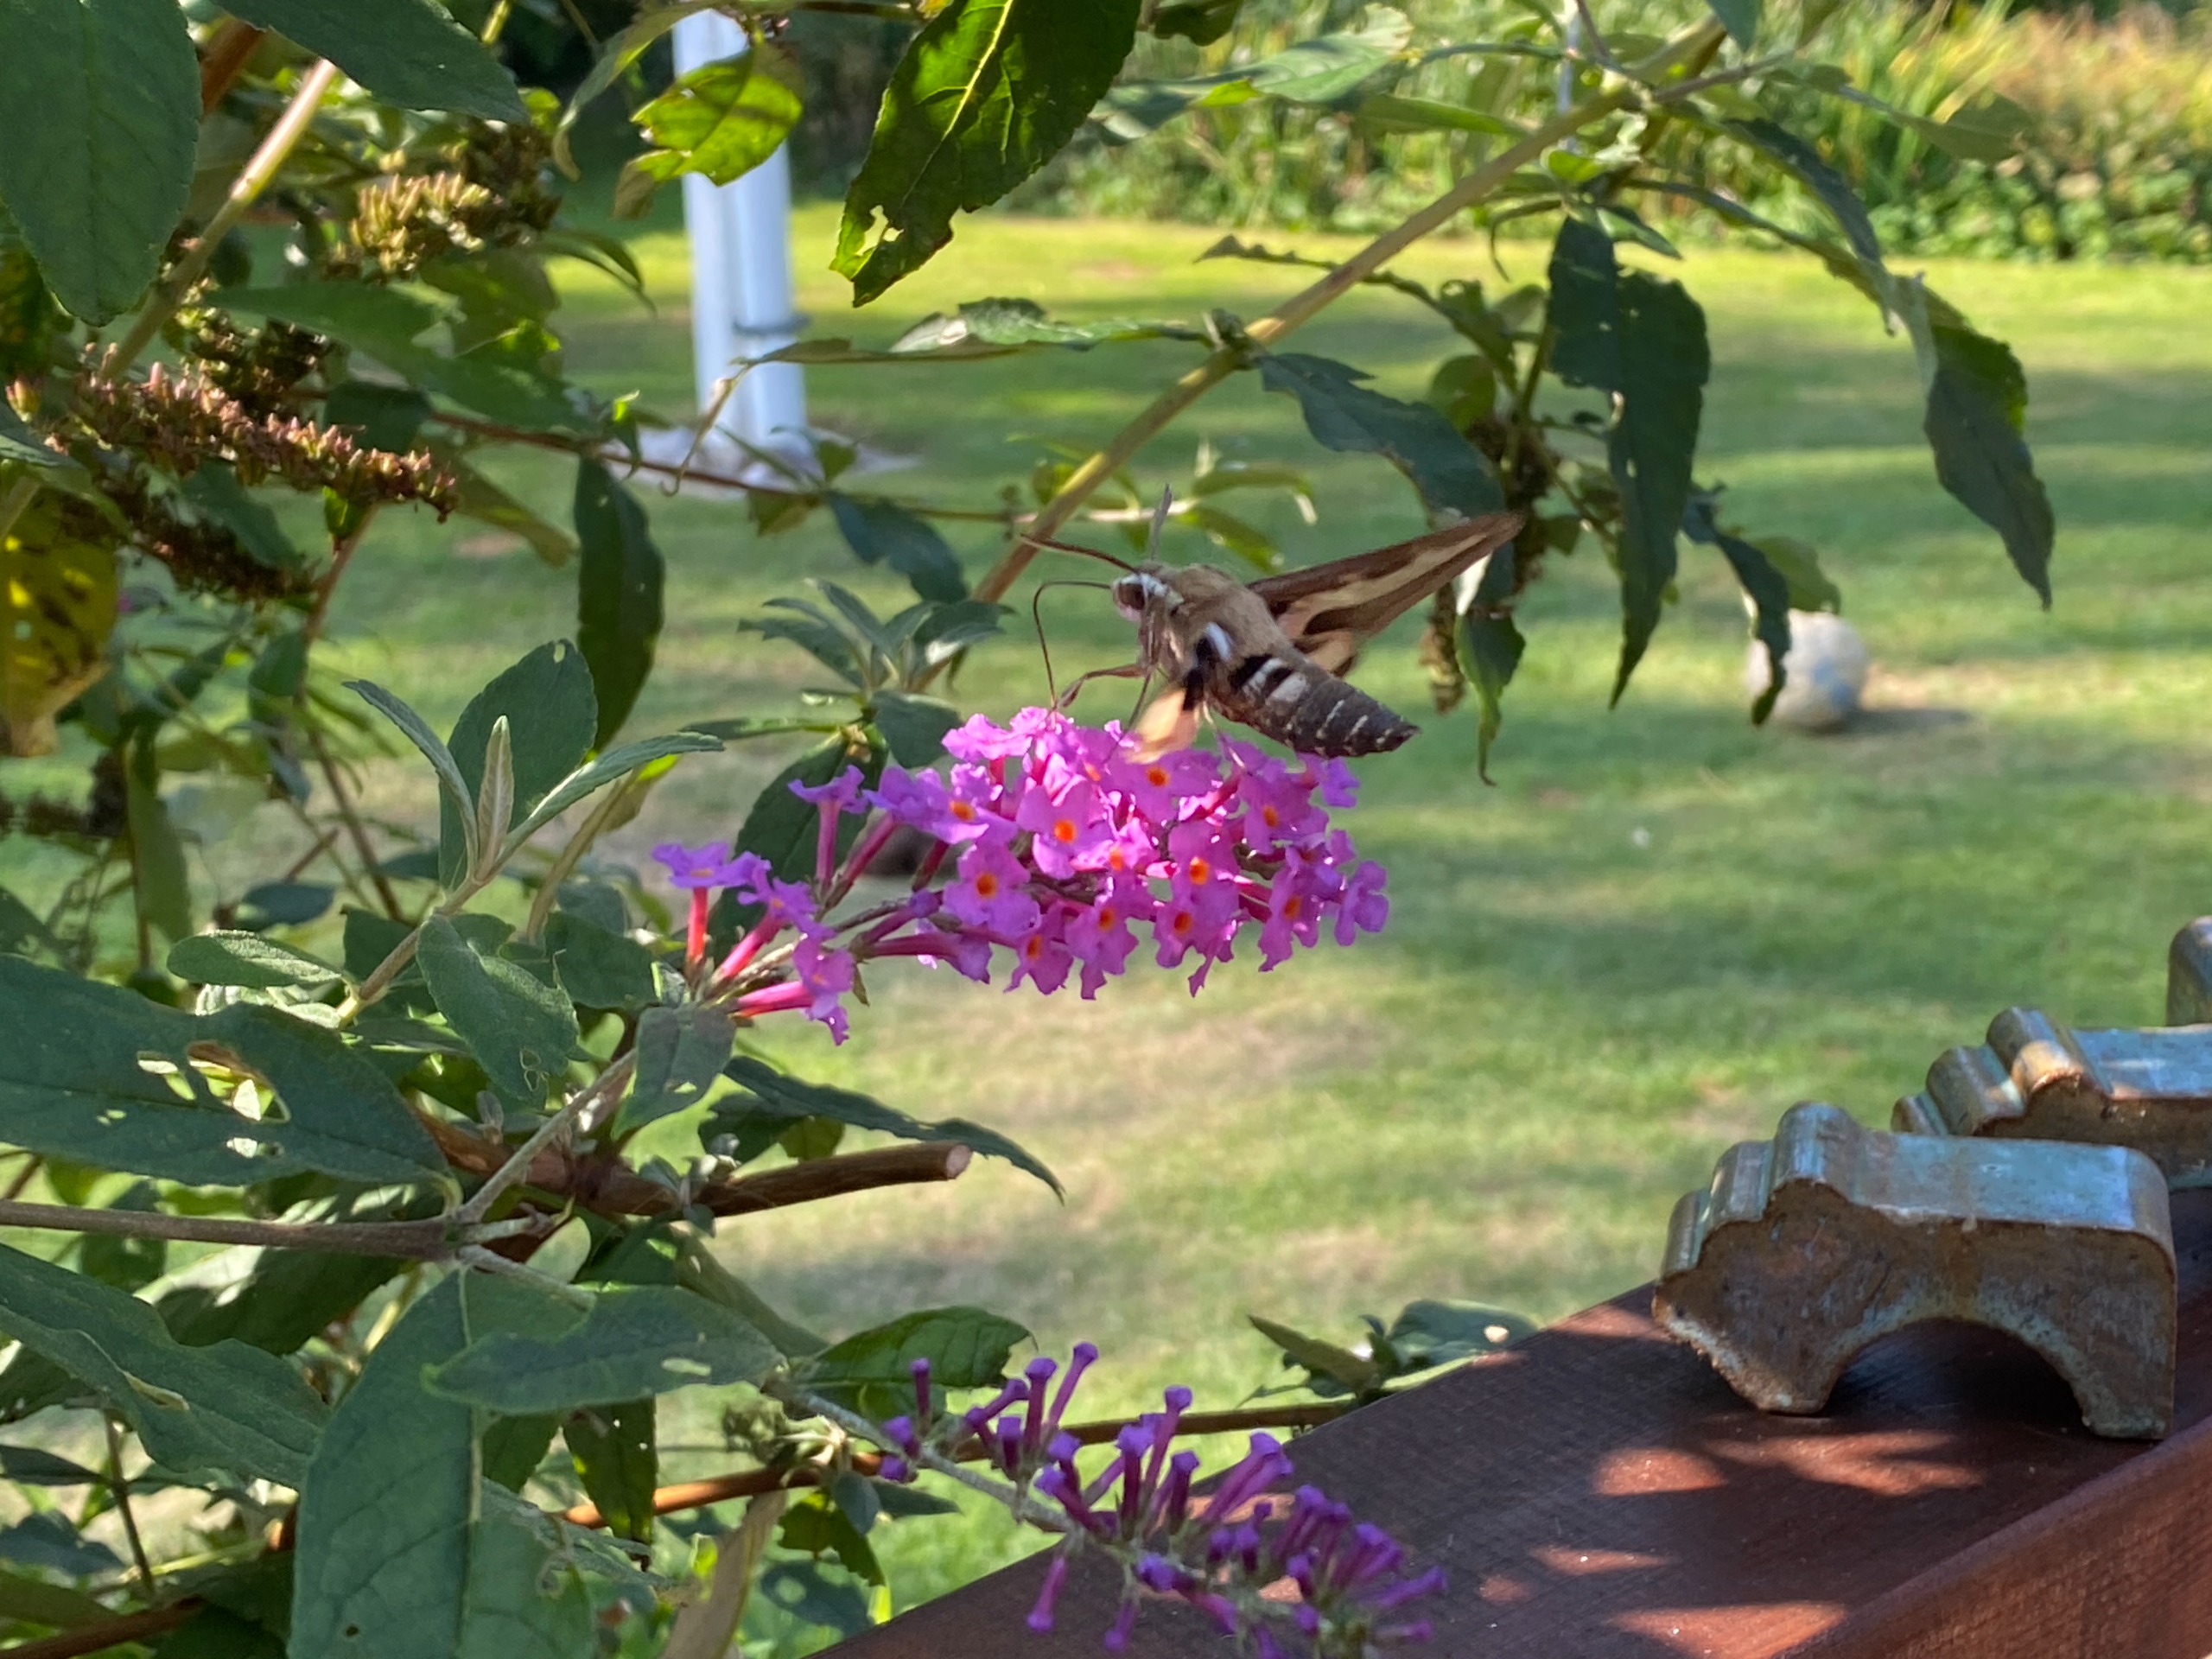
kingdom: Animalia
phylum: Arthropoda
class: Insecta
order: Lepidoptera
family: Sphingidae
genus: Hyles
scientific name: Hyles gallii
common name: Snerresværmer
